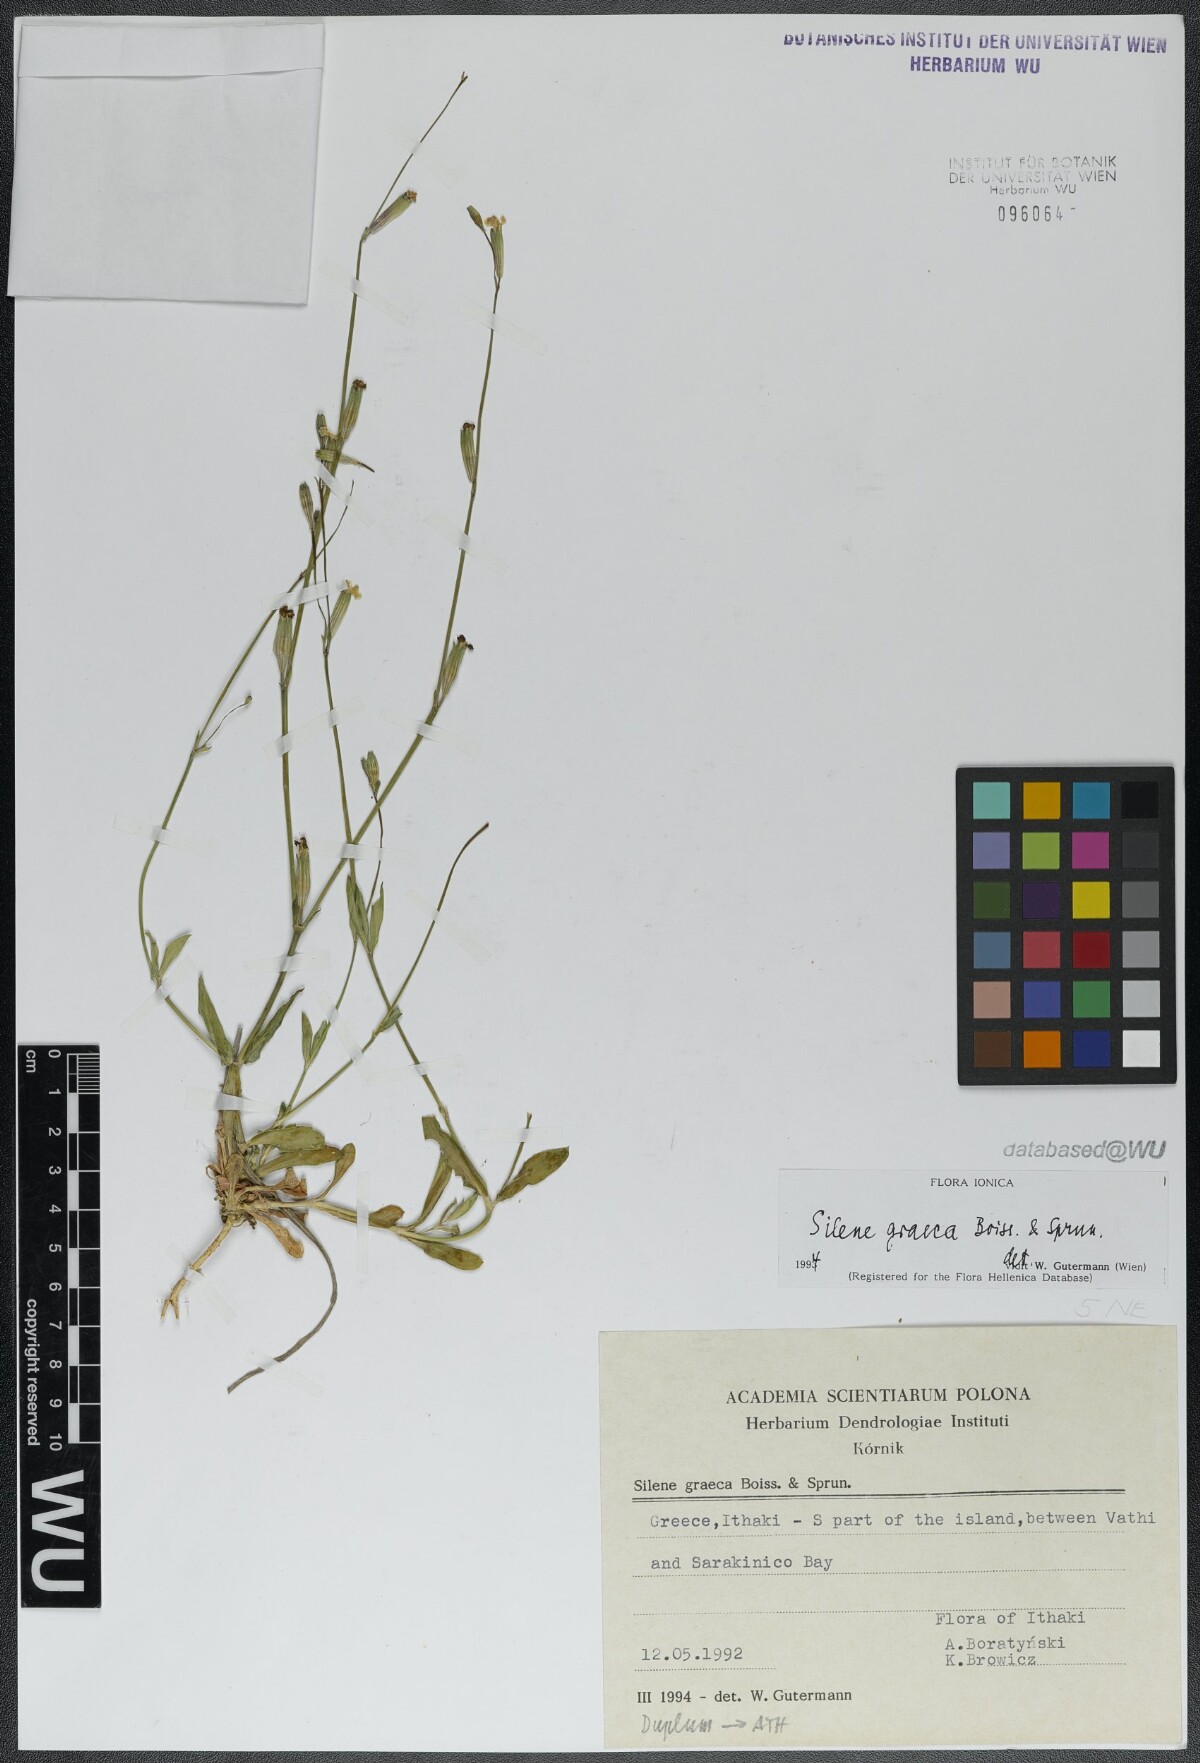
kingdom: Plantae
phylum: Tracheophyta
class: Magnoliopsida
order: Caryophyllales
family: Caryophyllaceae
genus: Silene
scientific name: Silene graeca
